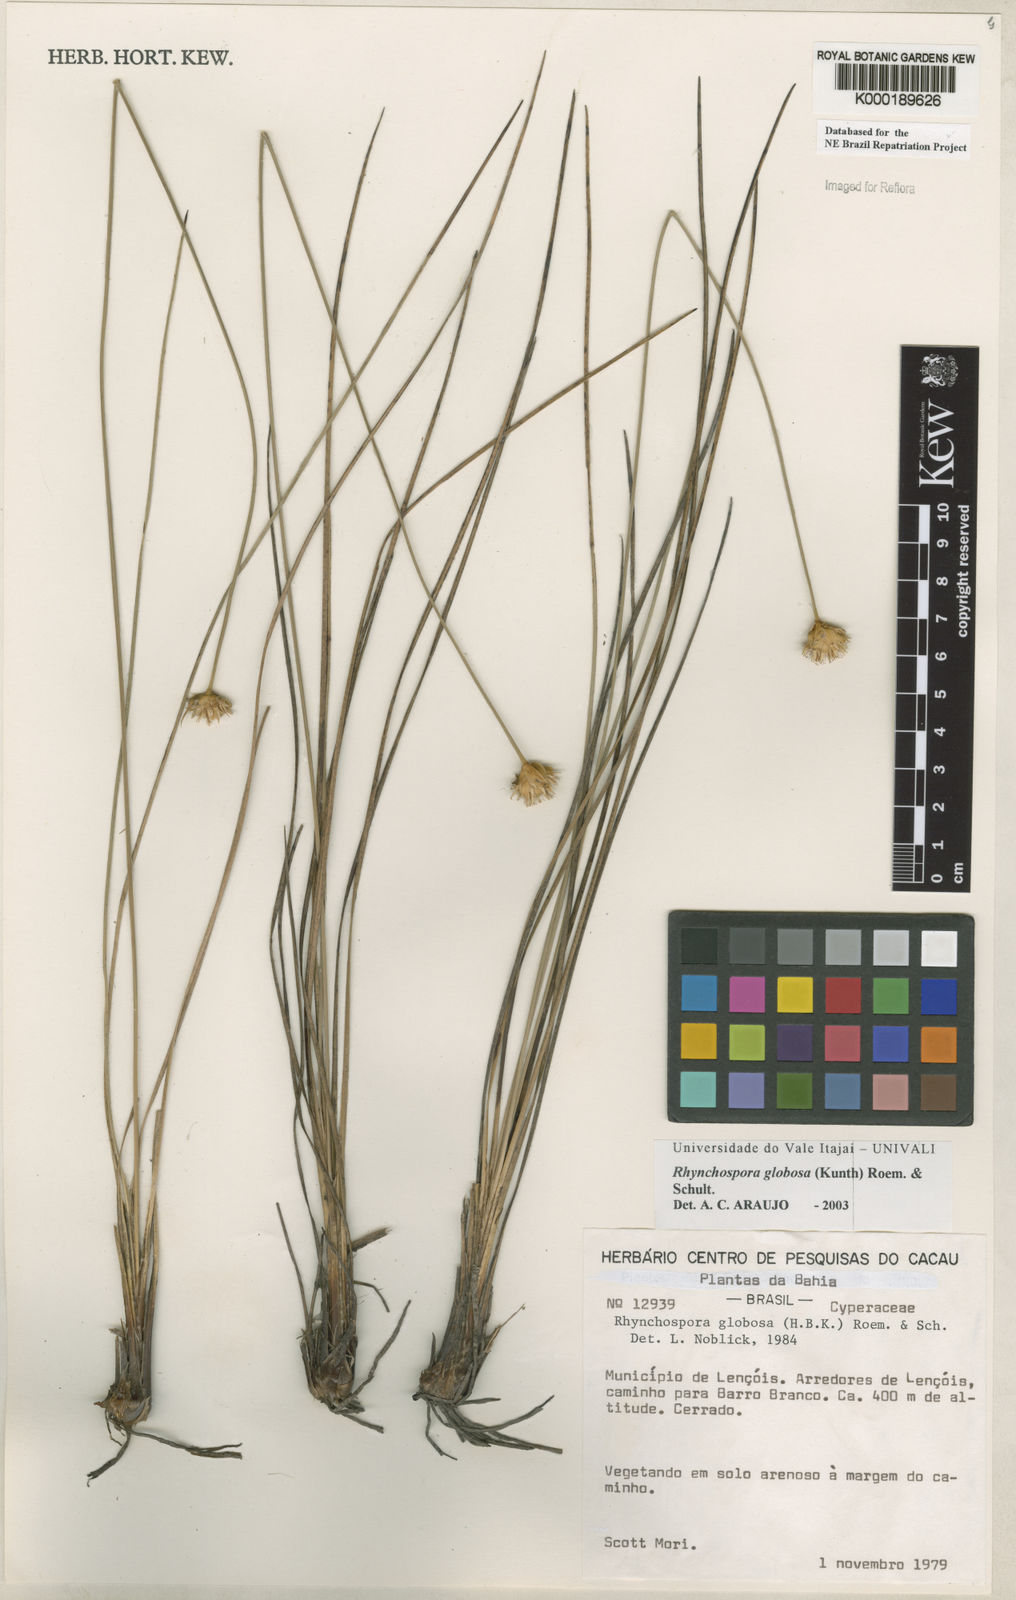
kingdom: Plantae
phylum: Tracheophyta
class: Liliopsida
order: Poales
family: Cyperaceae
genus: Rhynchospora
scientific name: Rhynchospora globosa
